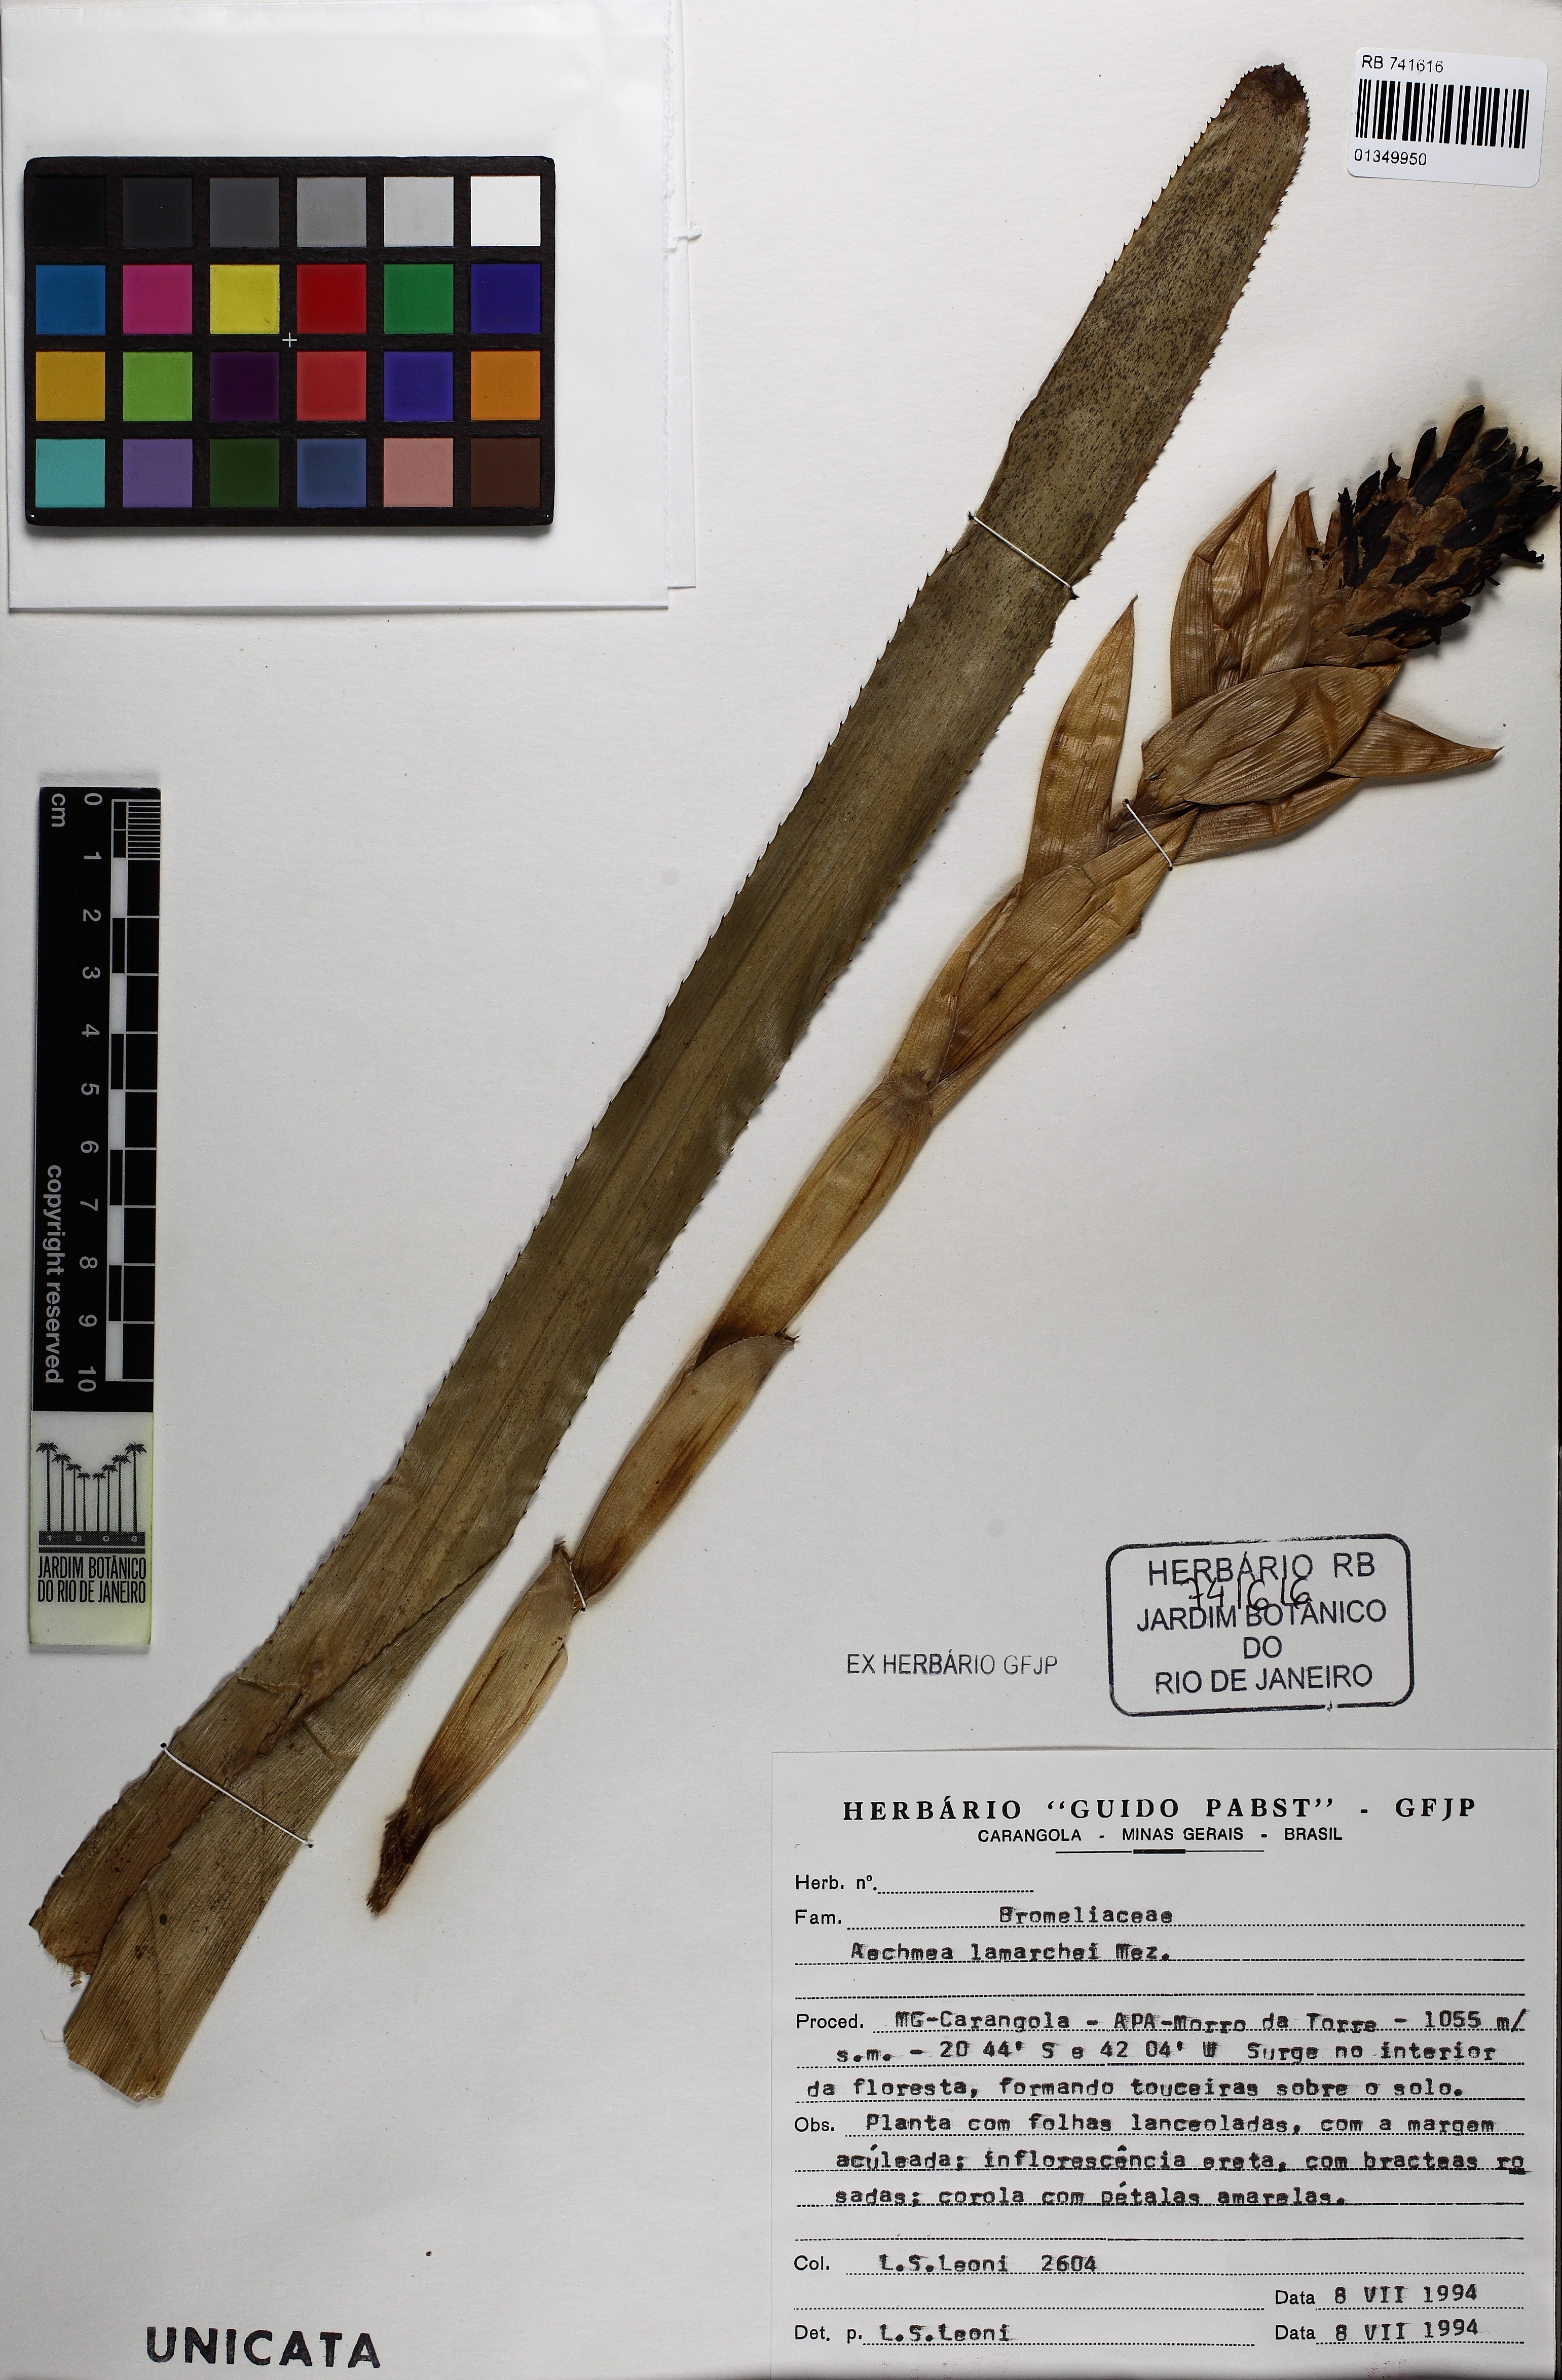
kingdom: Plantae
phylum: Tracheophyta
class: Liliopsida
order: Poales
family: Bromeliaceae
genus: Aechmea
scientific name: Aechmea lamarchei
